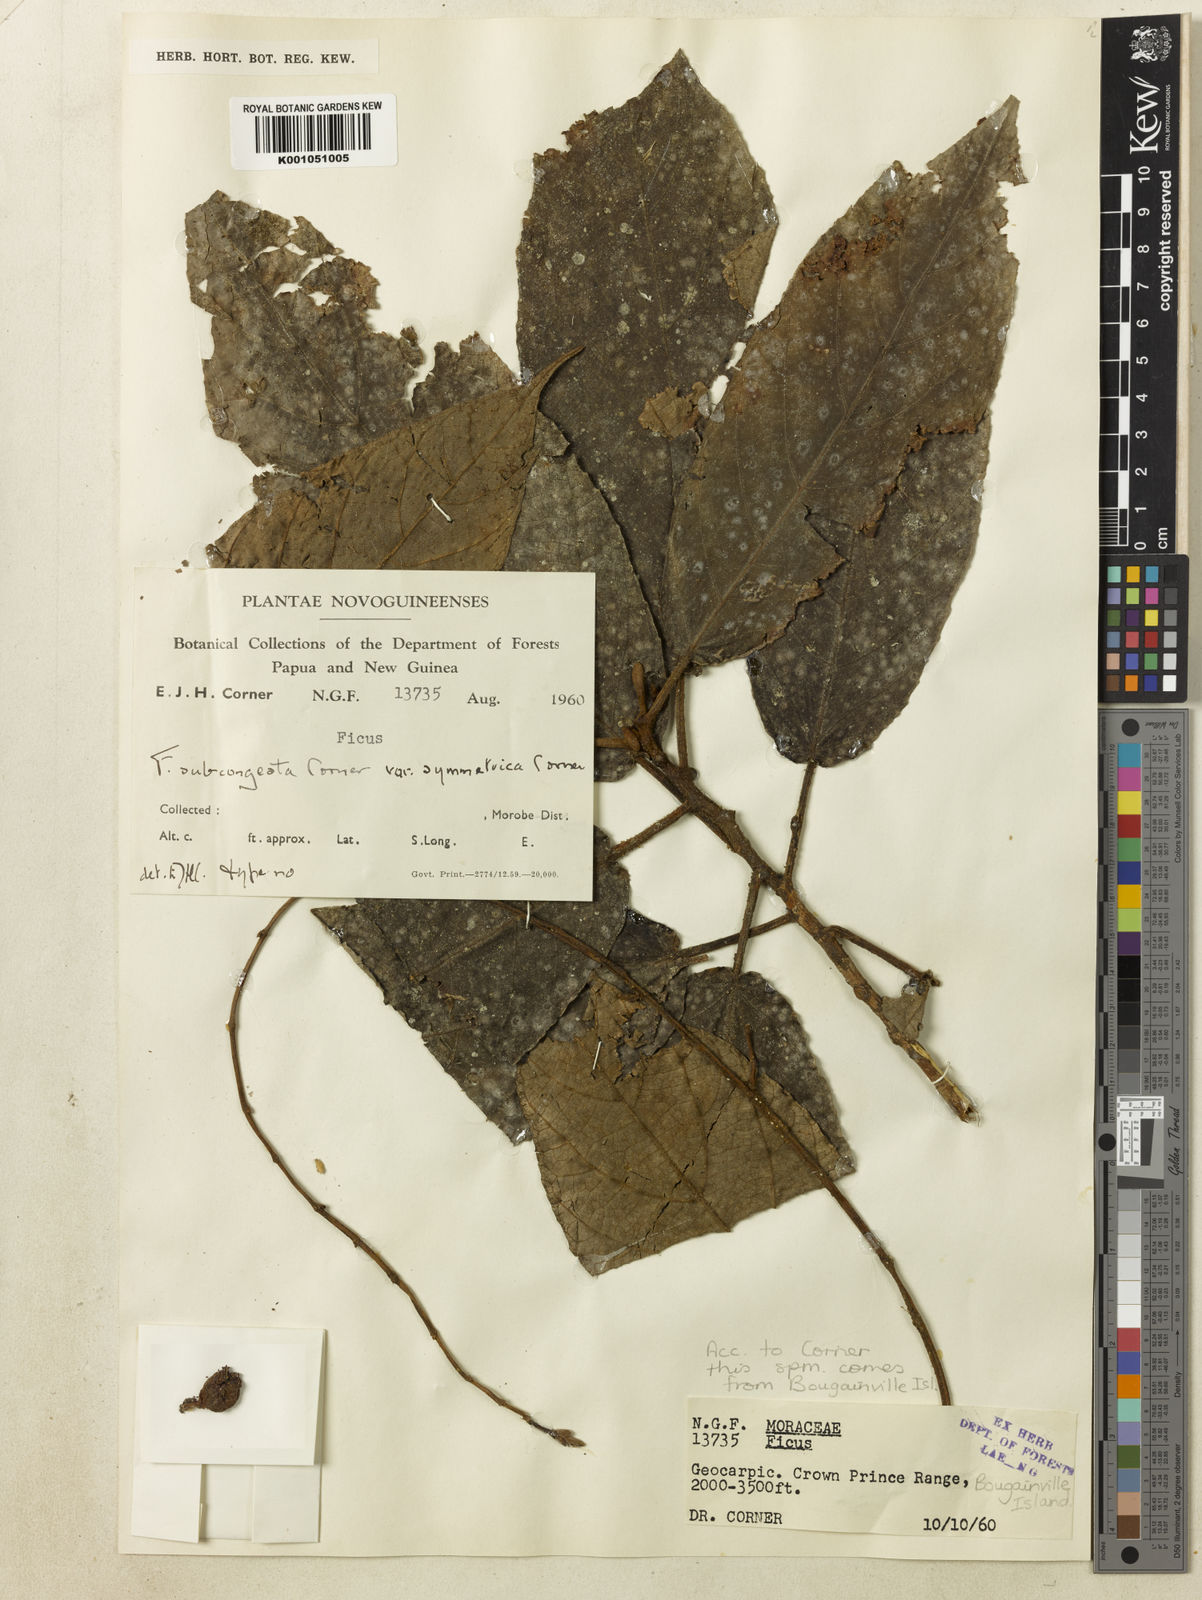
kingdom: Plantae
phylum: Tracheophyta
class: Magnoliopsida
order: Rosales
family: Moraceae
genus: Ficus
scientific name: Ficus subcongesta
